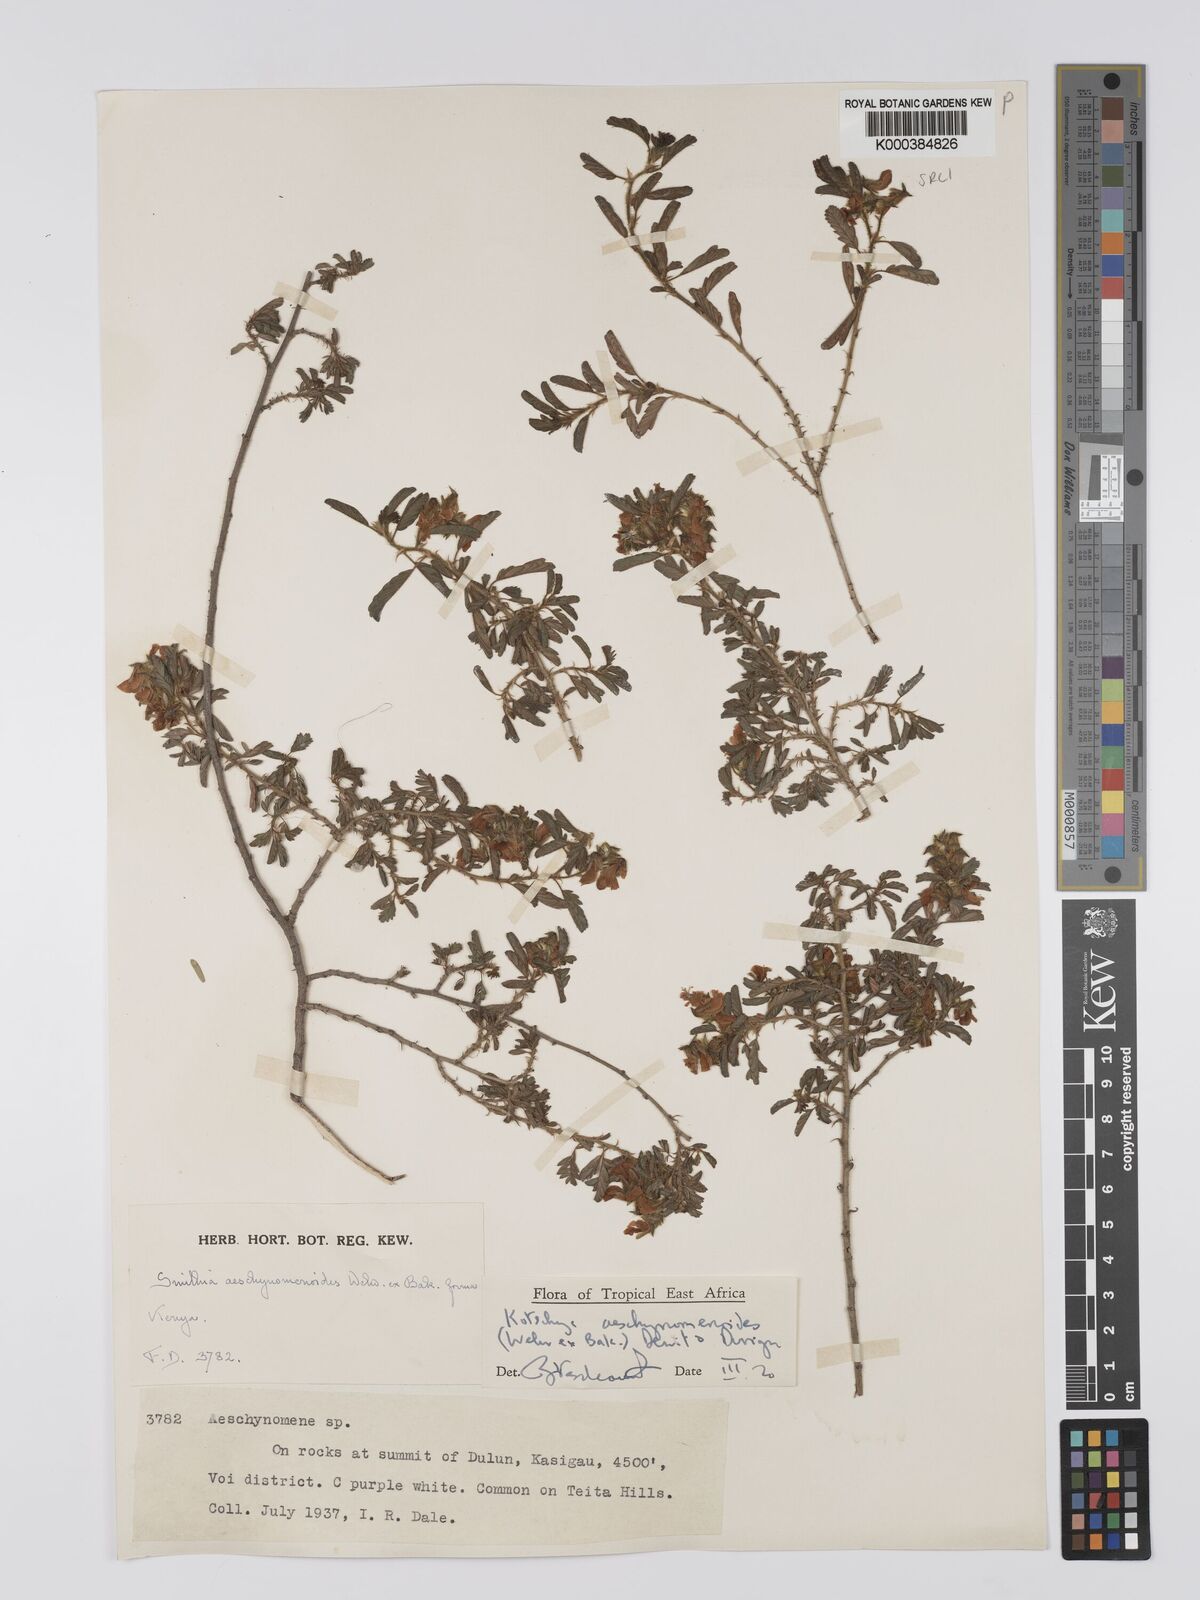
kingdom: Plantae
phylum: Tracheophyta
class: Magnoliopsida
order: Fabales
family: Fabaceae
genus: Kotschya
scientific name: Kotschya aeschynomenoides
